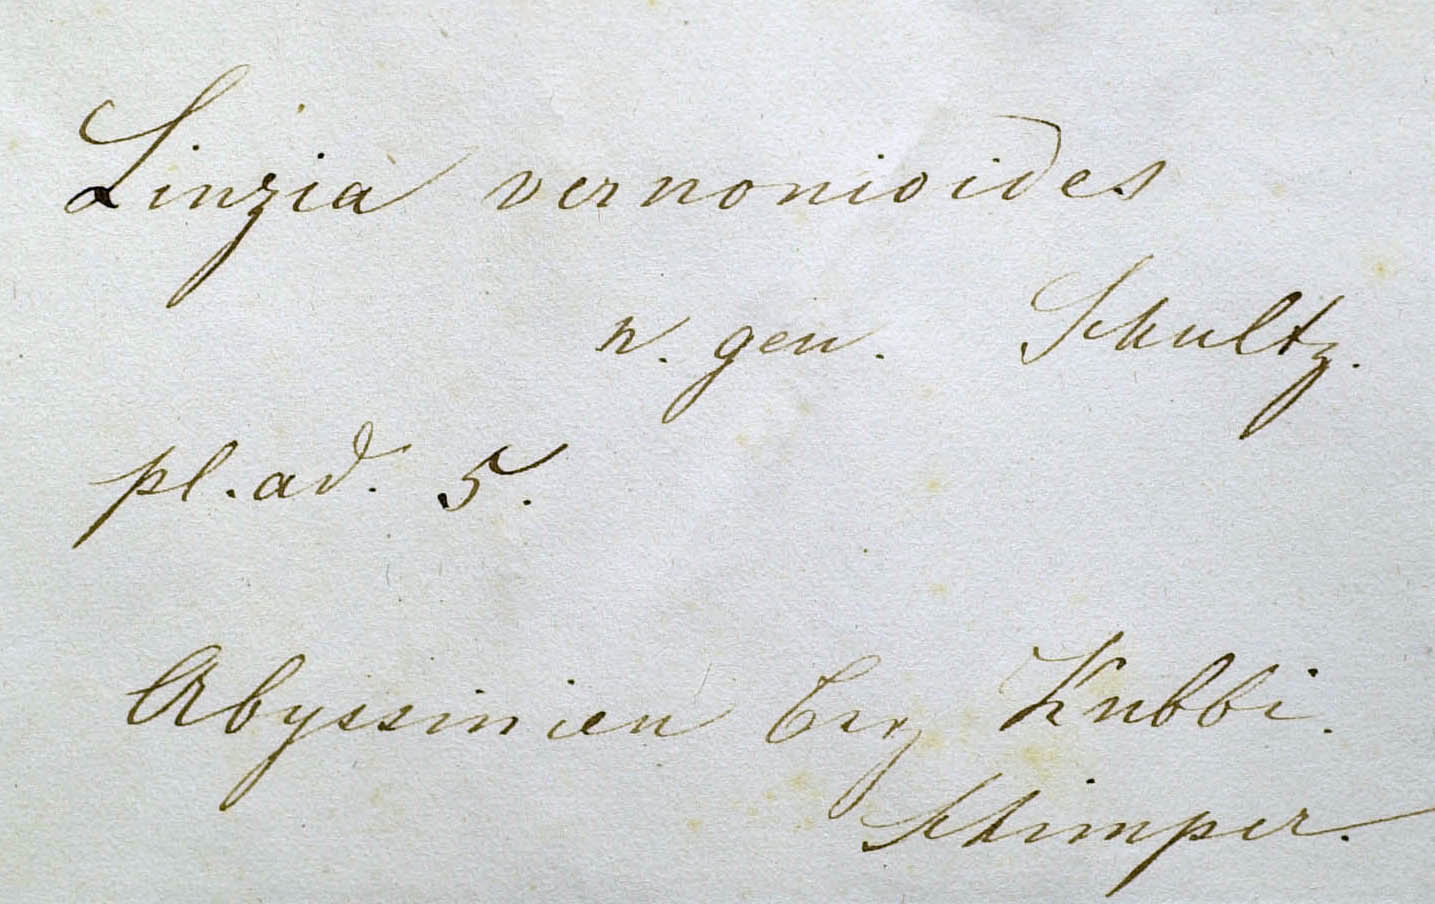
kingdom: Plantae
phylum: Tracheophyta
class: Magnoliopsida
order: Asterales
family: Asteraceae
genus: Vernonia
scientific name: Vernonia congolensis
